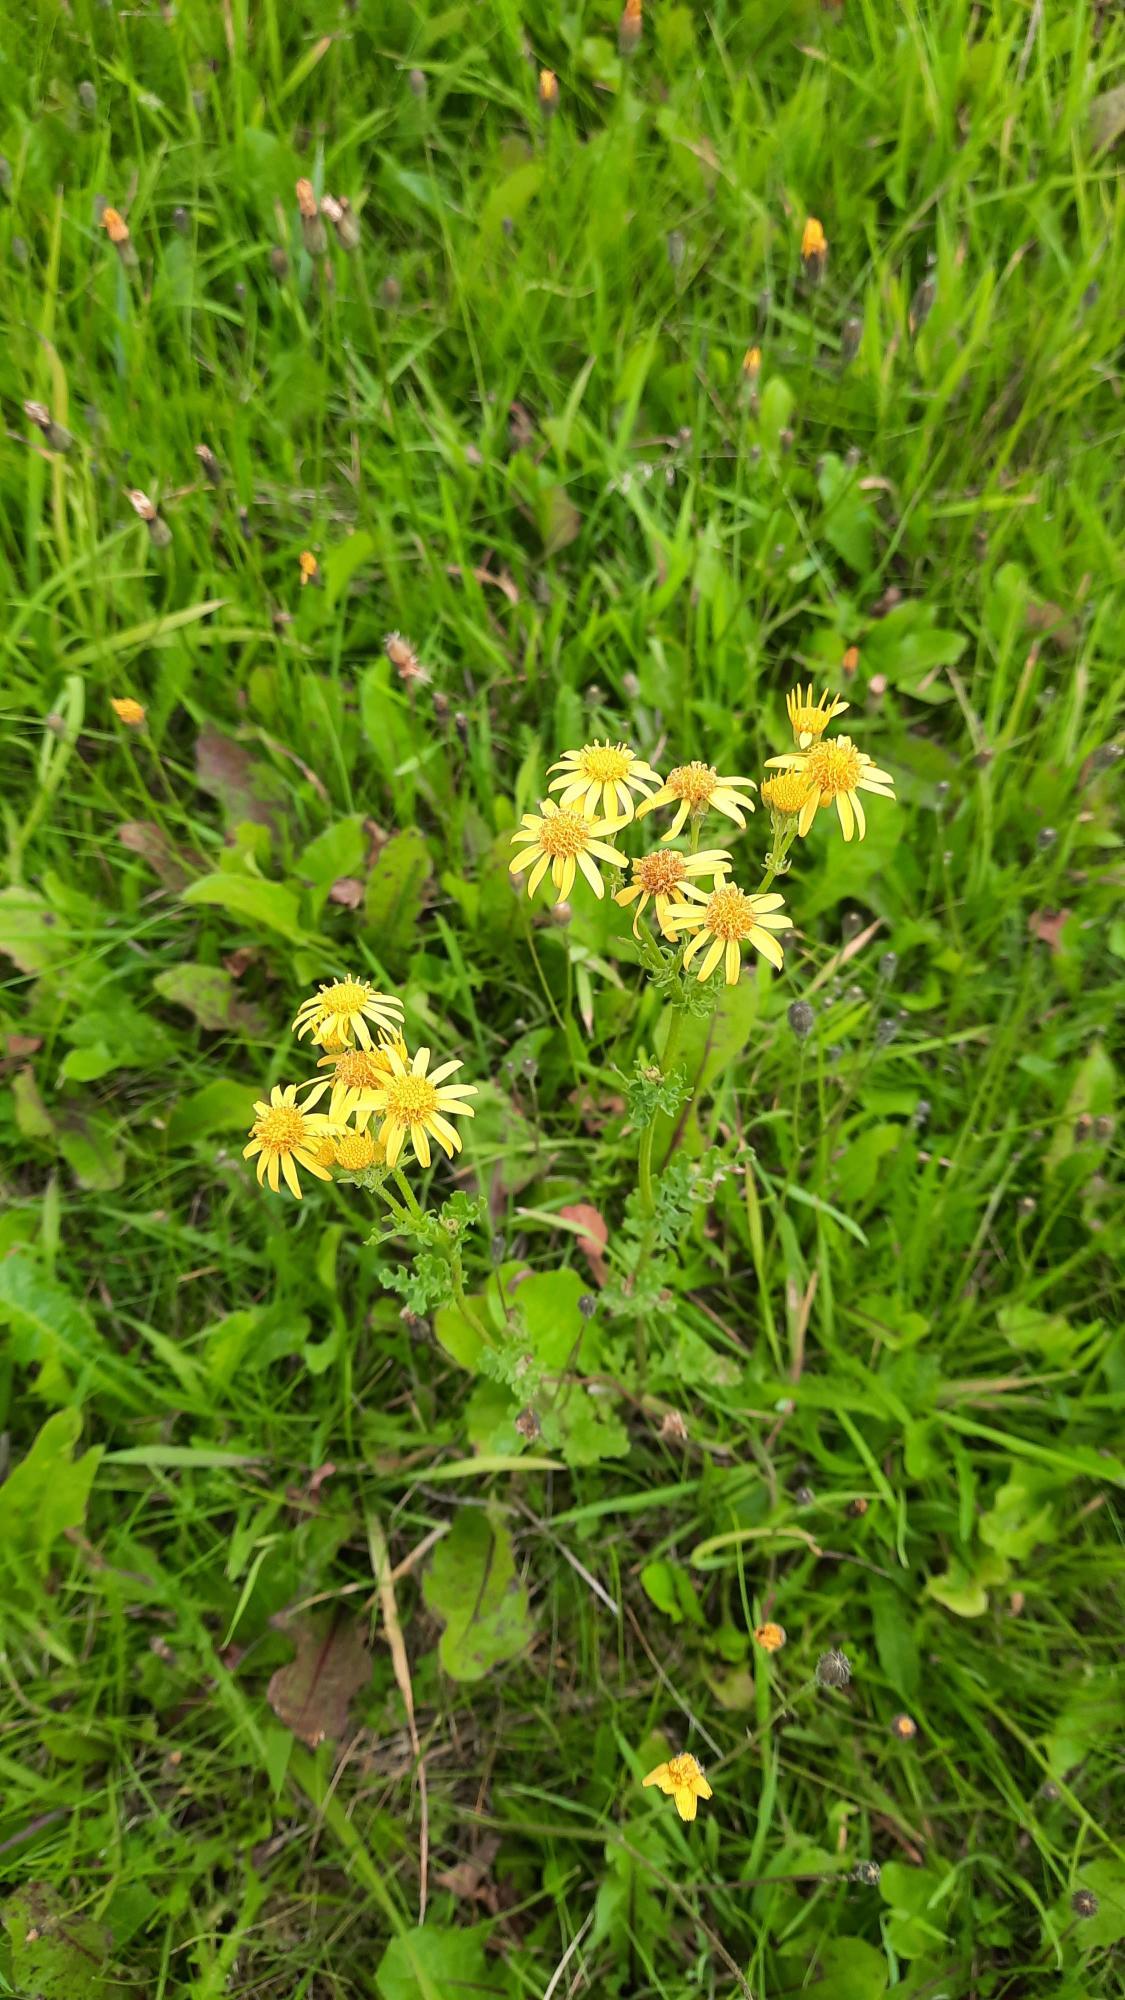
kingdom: Plantae
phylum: Tracheophyta
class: Magnoliopsida
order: Asterales
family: Asteraceae
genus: Jacobaea
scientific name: Jacobaea vulgaris
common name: Eng-brandbæger
